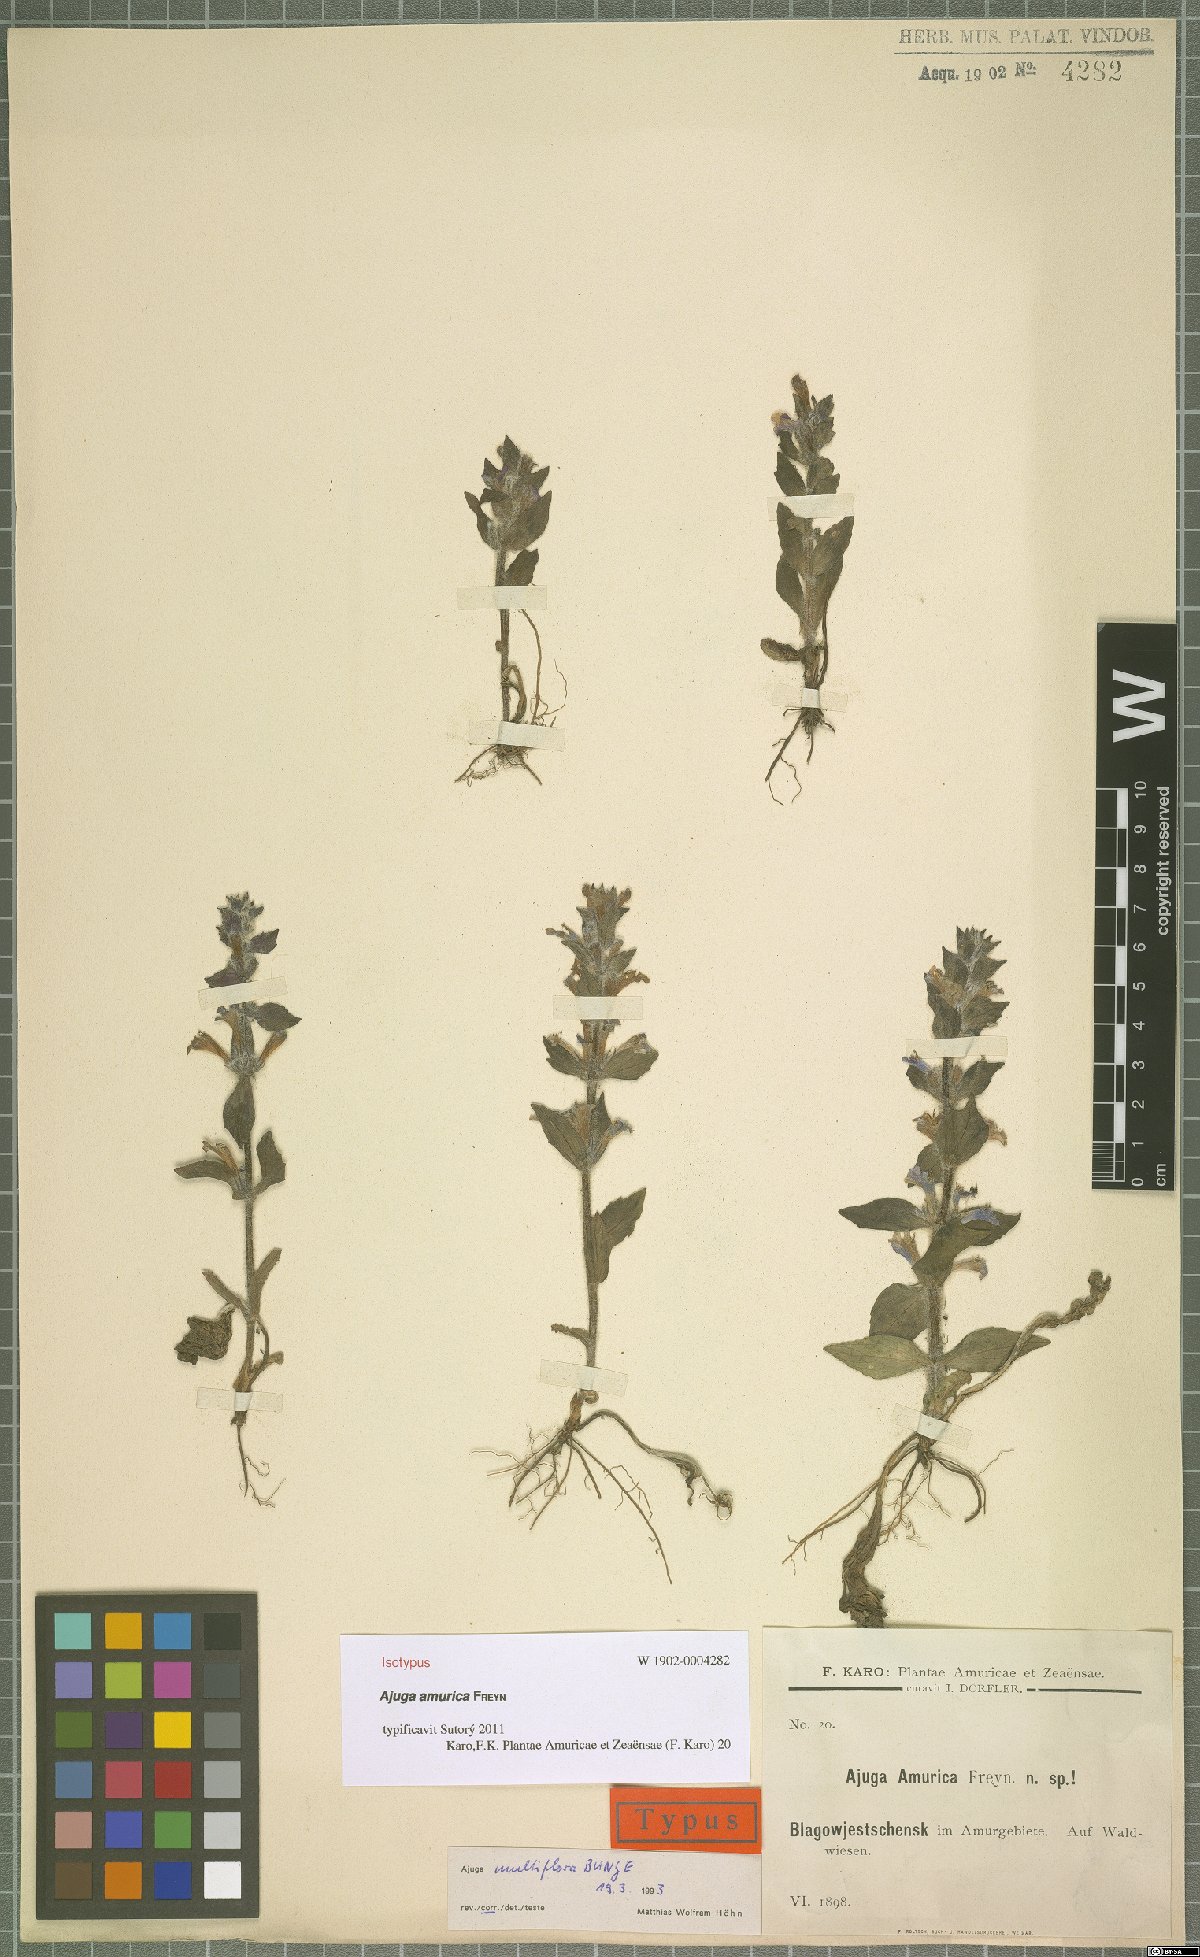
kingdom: Plantae
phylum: Tracheophyta
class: Magnoliopsida
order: Lamiales
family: Lamiaceae
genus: Ajuga
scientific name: Ajuga multiflora
